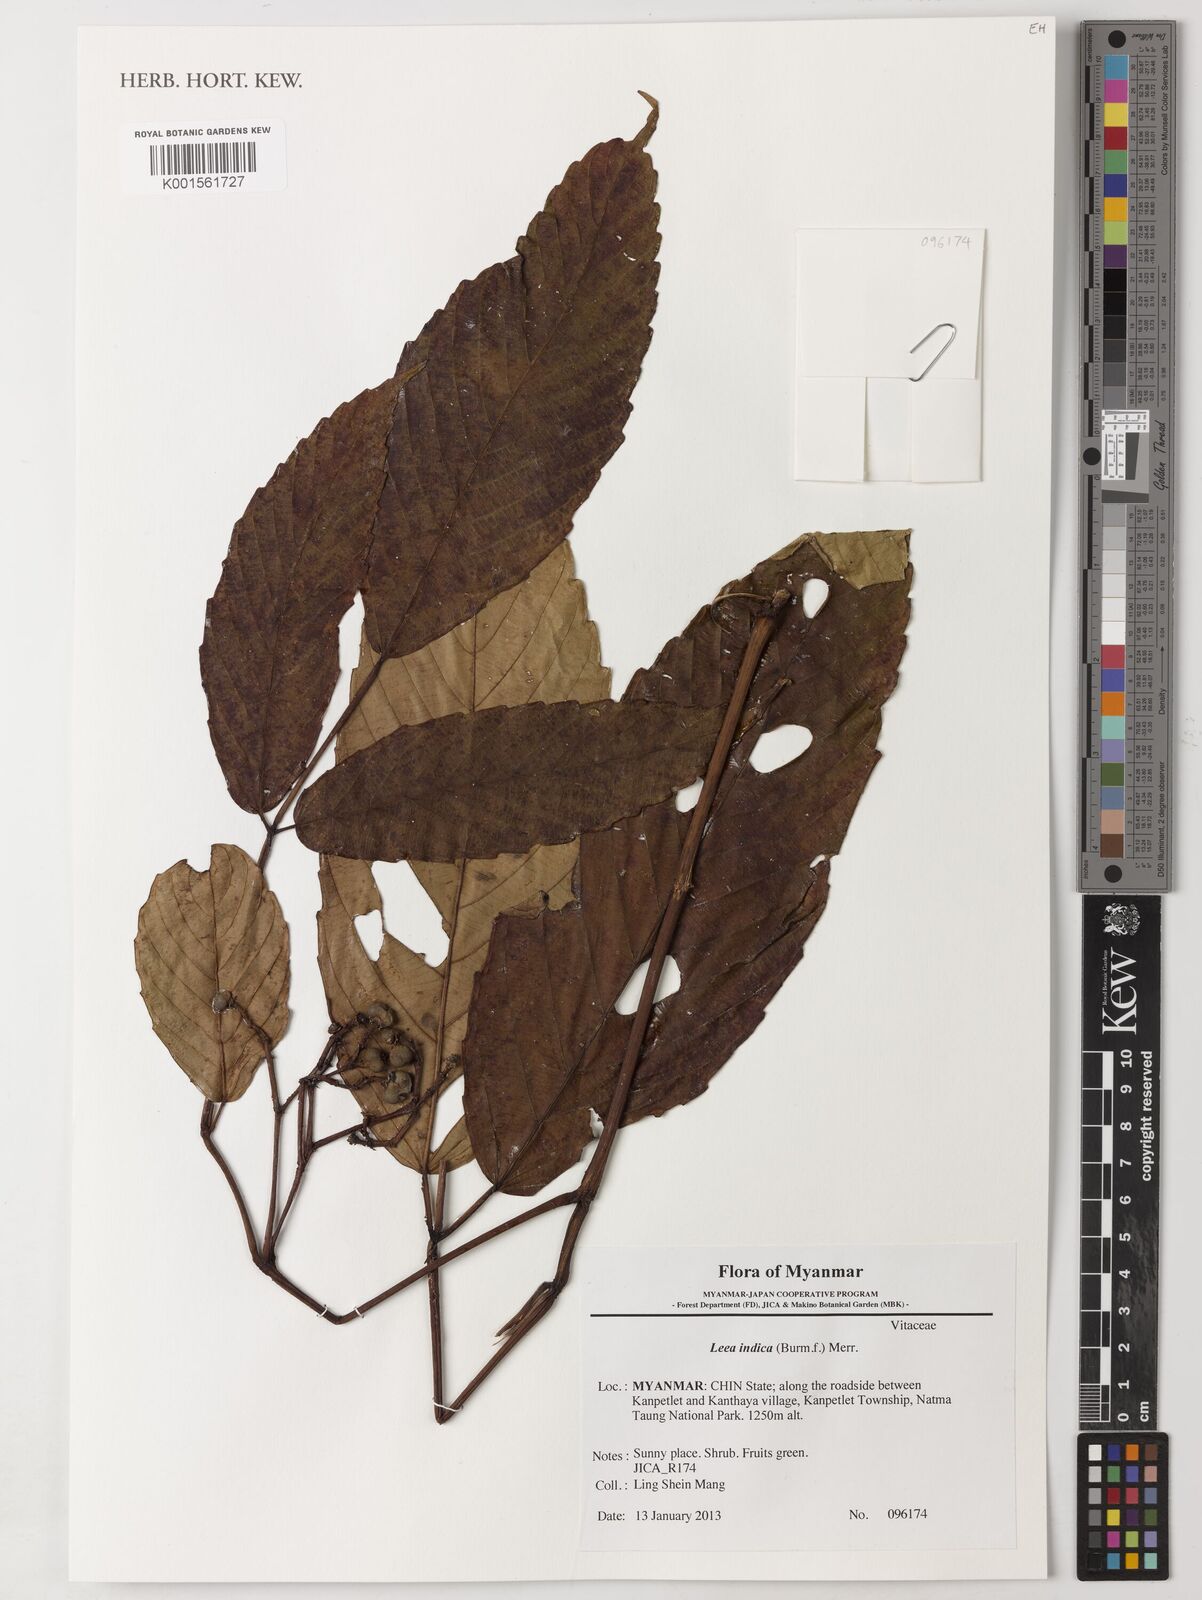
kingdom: Plantae
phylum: Tracheophyta
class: Magnoliopsida
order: Vitales
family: Vitaceae
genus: Leea
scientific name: Leea indica
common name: Bandicoot-berry
